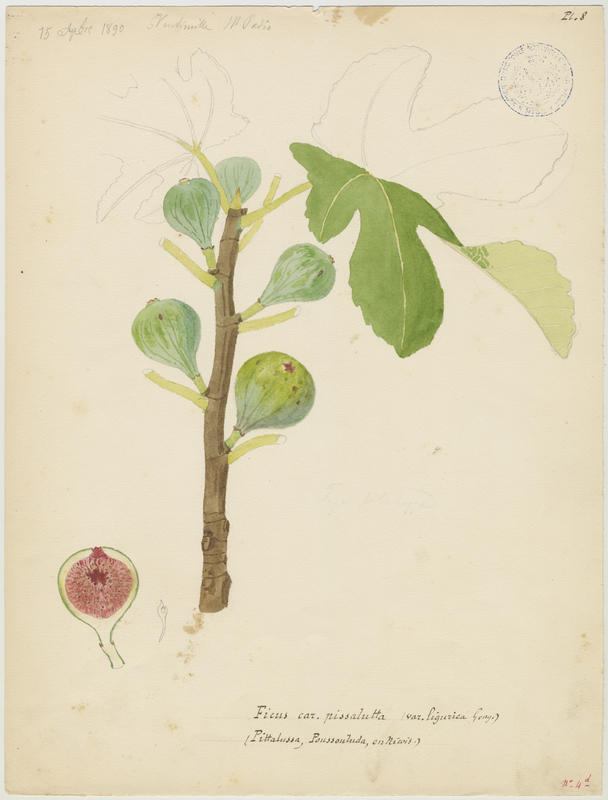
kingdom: Plantae
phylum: Tracheophyta
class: Magnoliopsida
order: Rosales
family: Moraceae
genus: Ficus
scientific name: Ficus carica
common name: Fig
